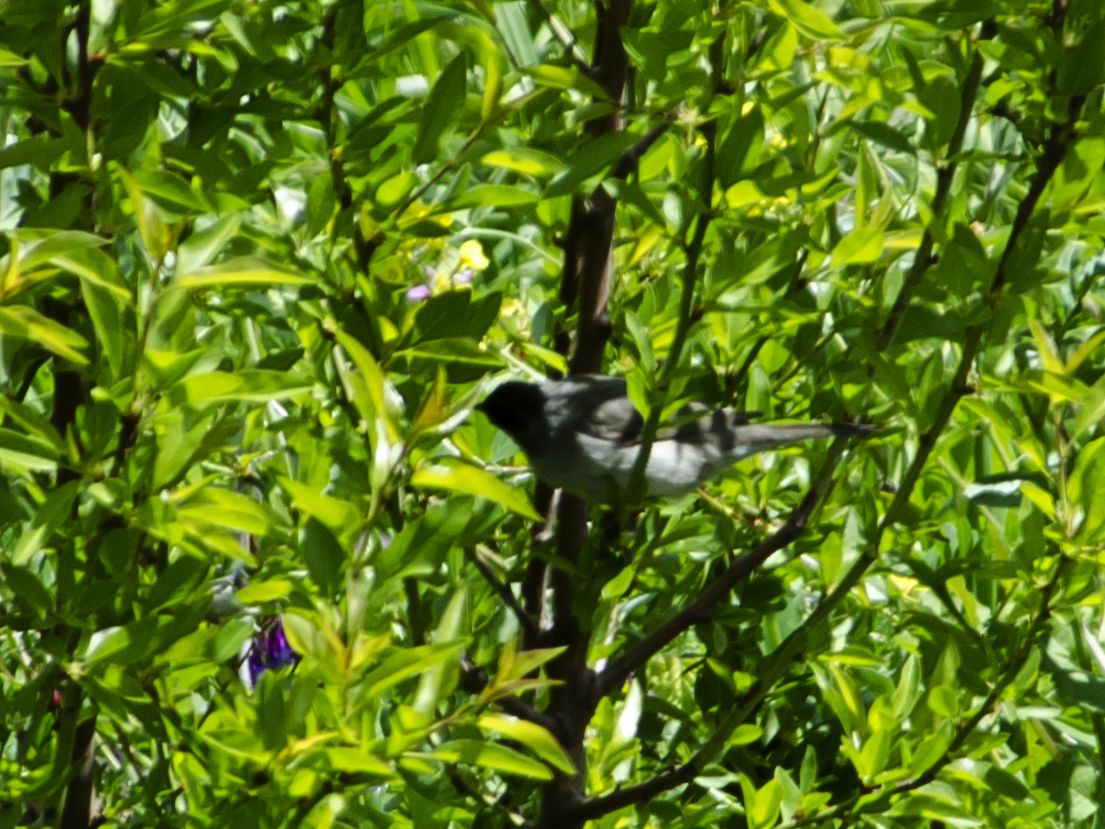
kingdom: Animalia
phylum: Chordata
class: Aves
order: Passeriformes
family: Sylviidae
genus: Sylvia
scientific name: Sylvia atricapilla
